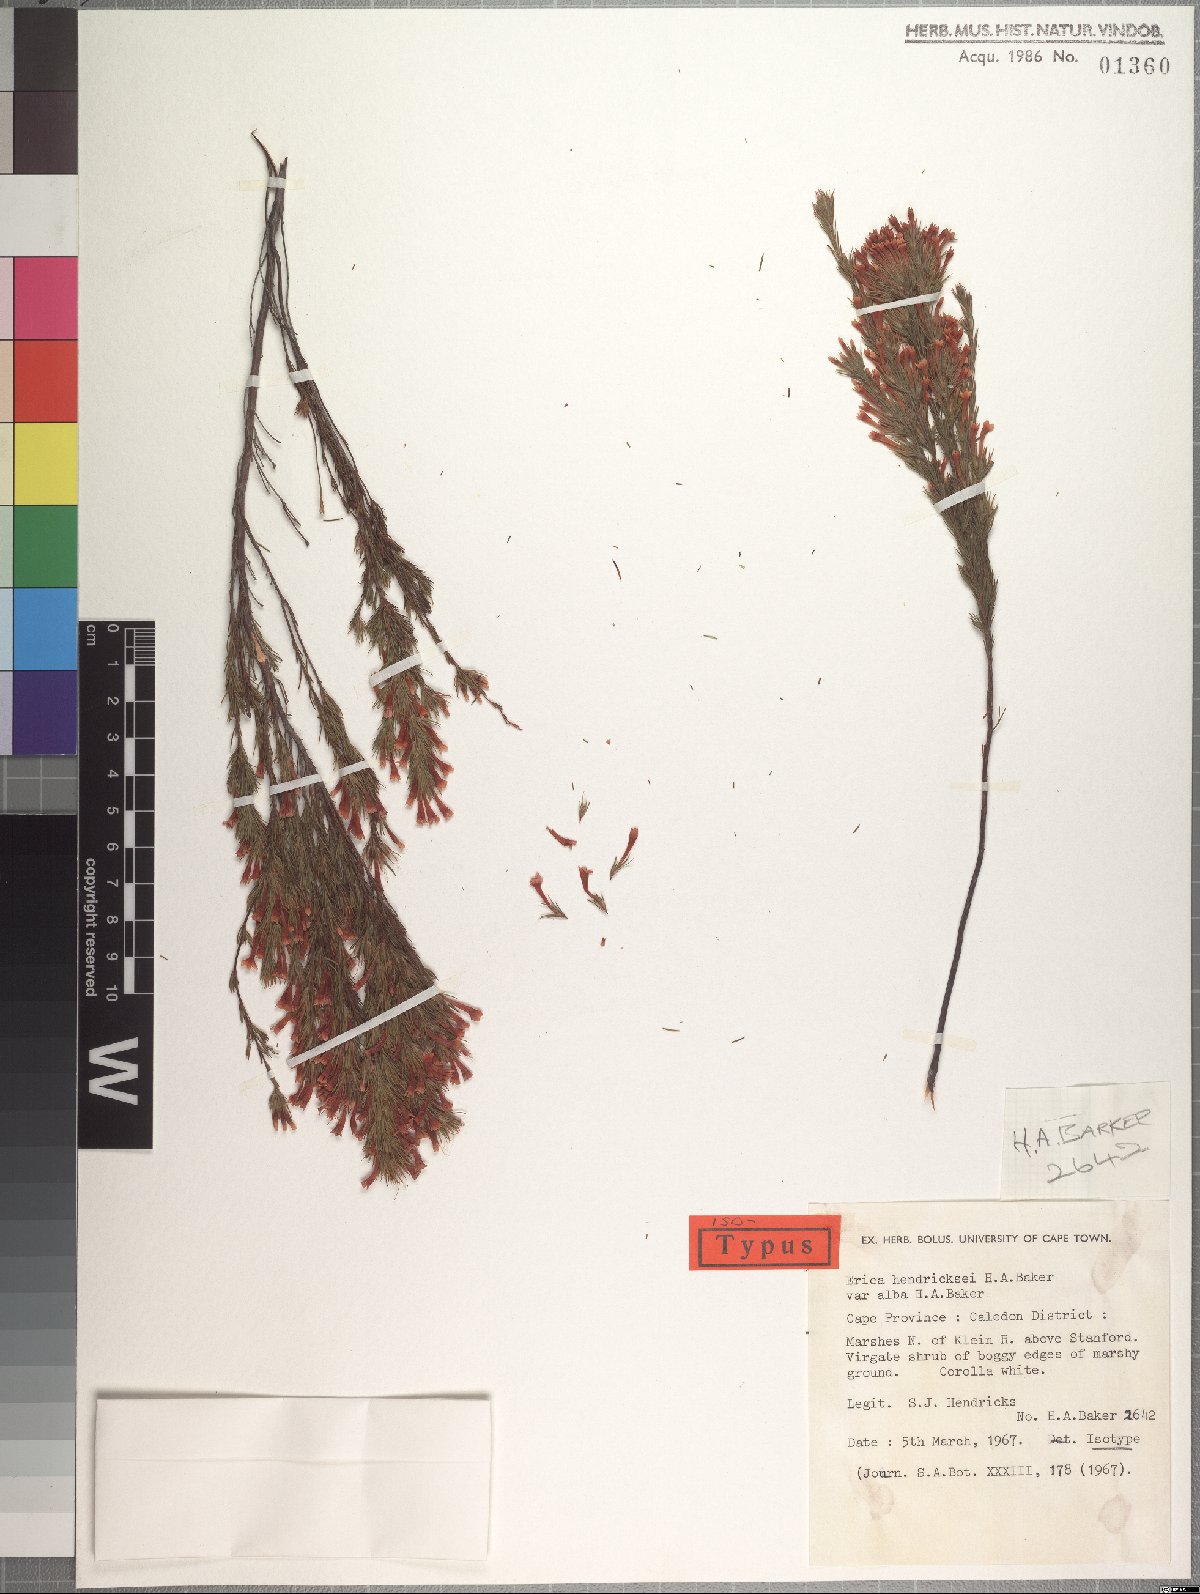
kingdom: Plantae
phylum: Tracheophyta
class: Magnoliopsida
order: Ericales
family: Ericaceae
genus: Erica
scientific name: Erica hendricksei
